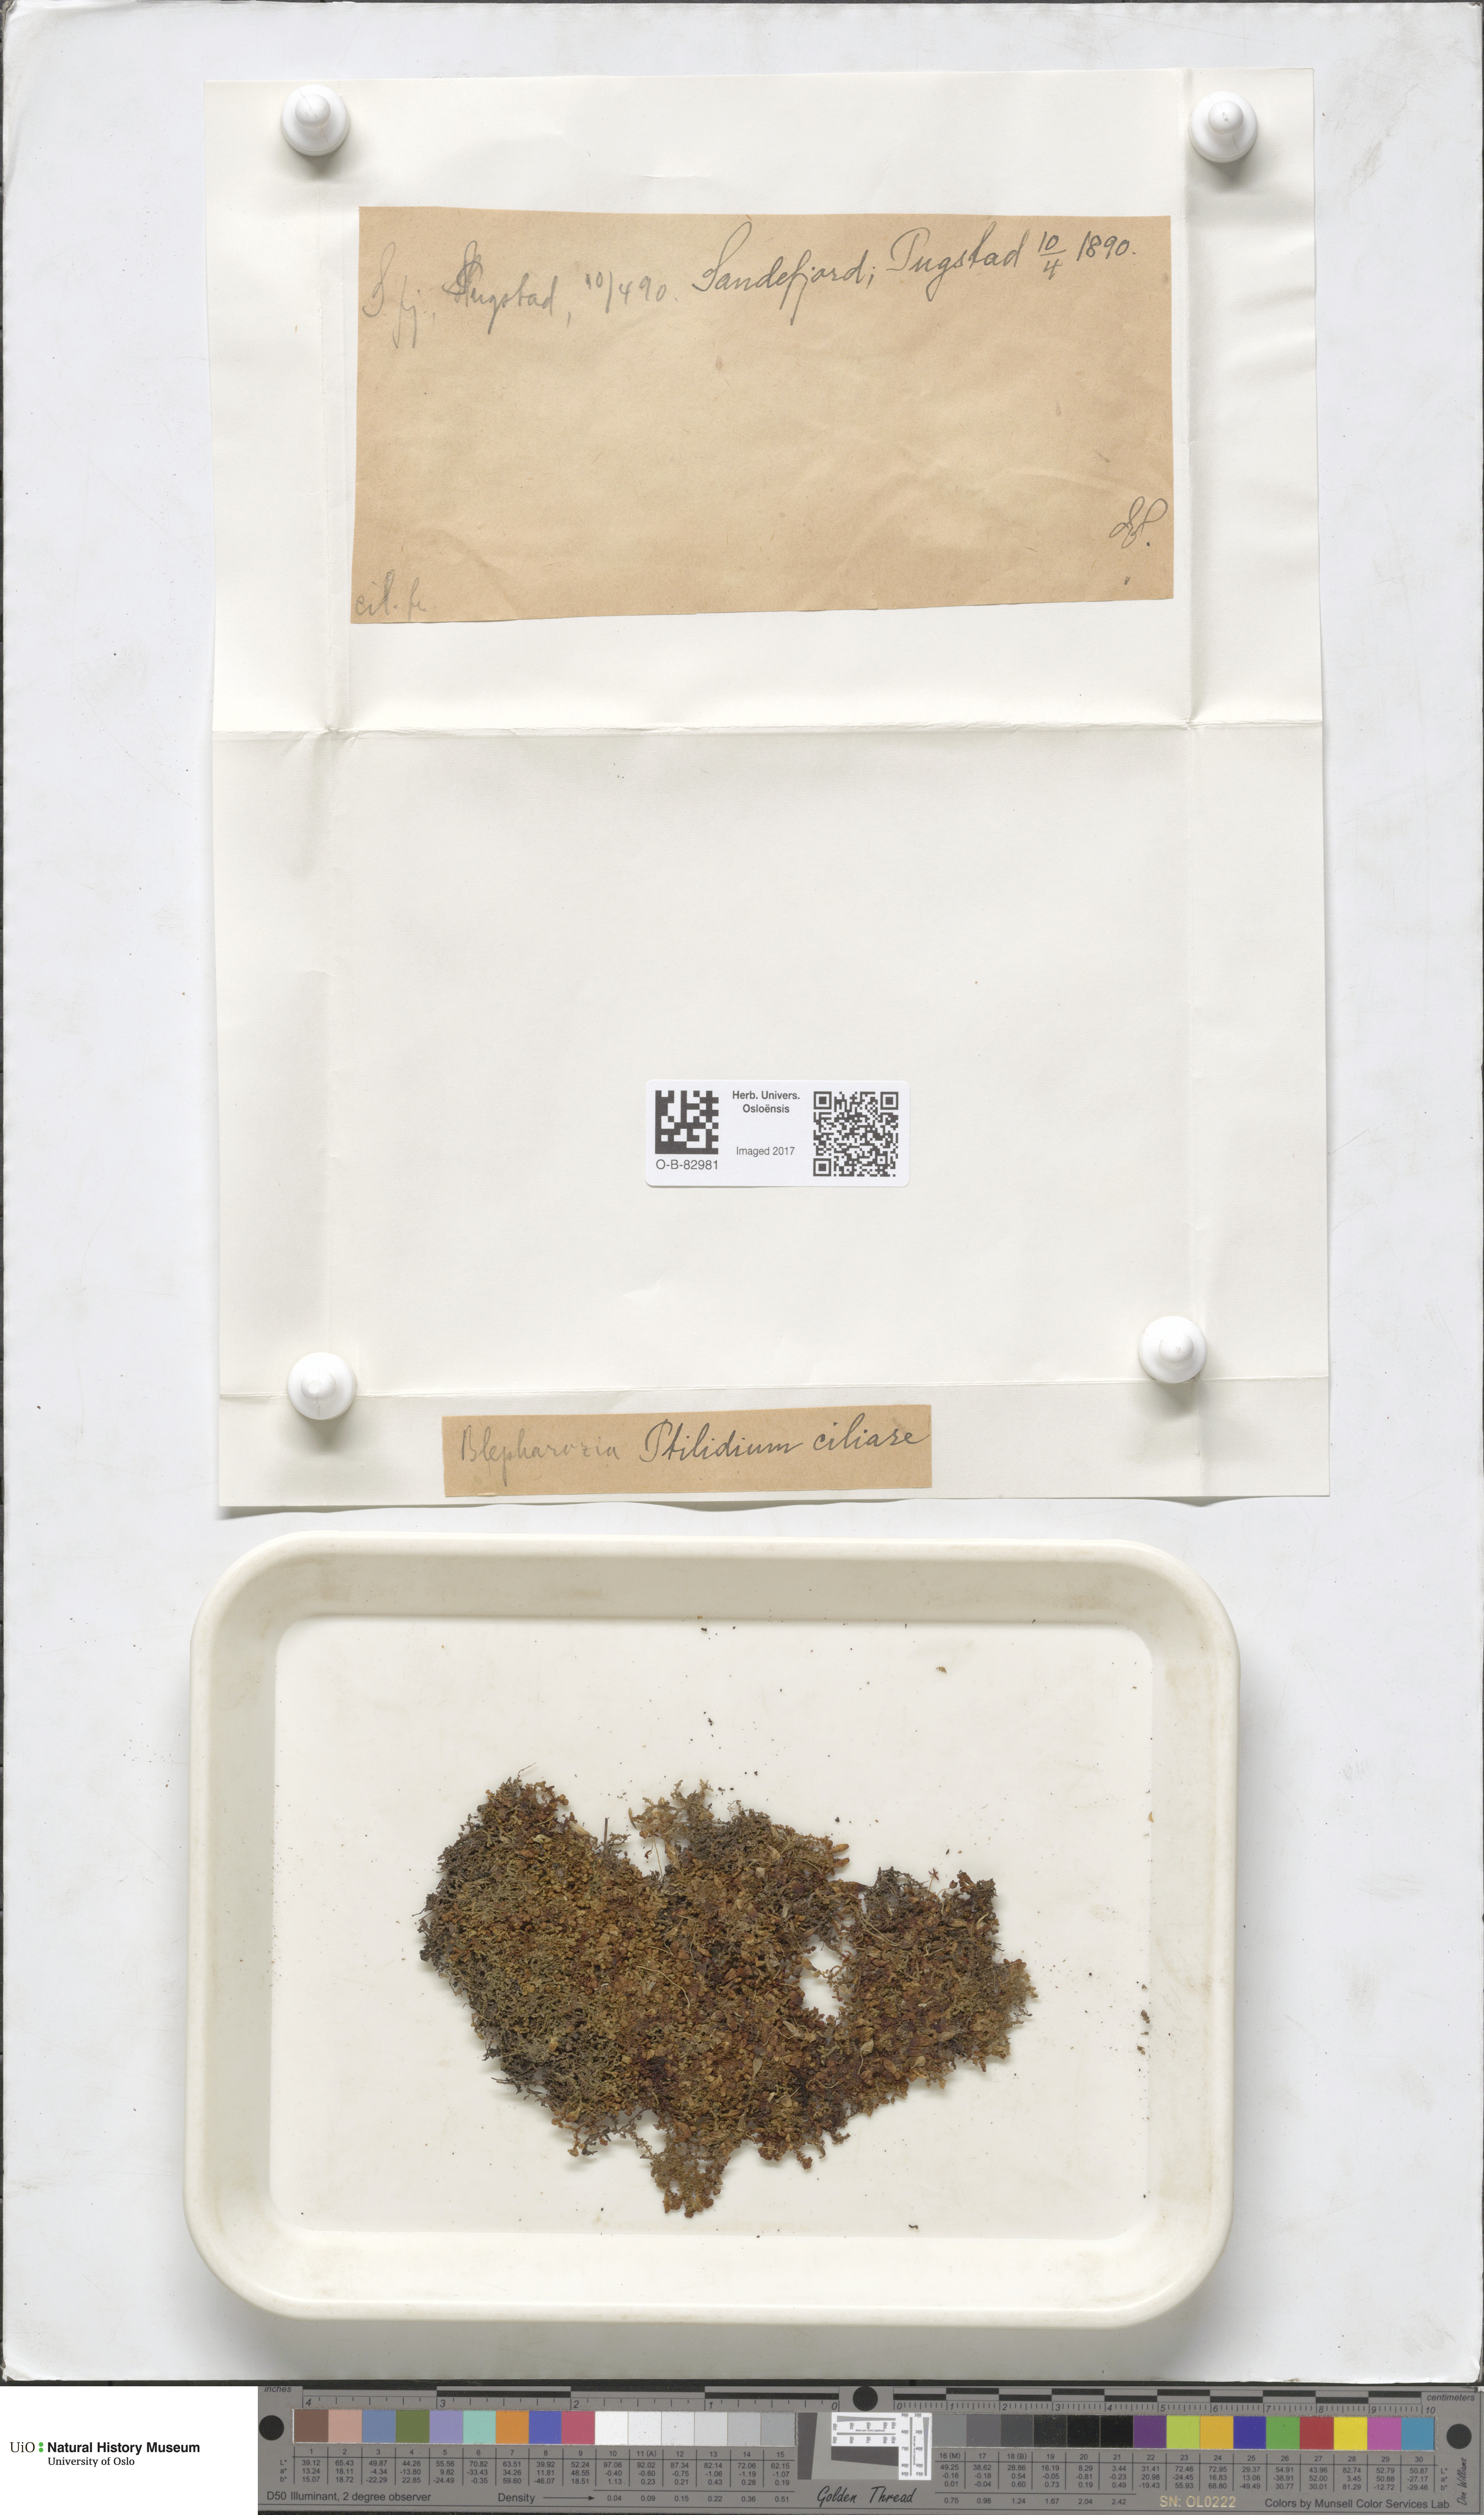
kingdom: Plantae
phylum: Marchantiophyta
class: Jungermanniopsida
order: Ptilidiales
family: Ptilidiaceae
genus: Ptilidium
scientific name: Ptilidium ciliare
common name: Ciliate fringewort
